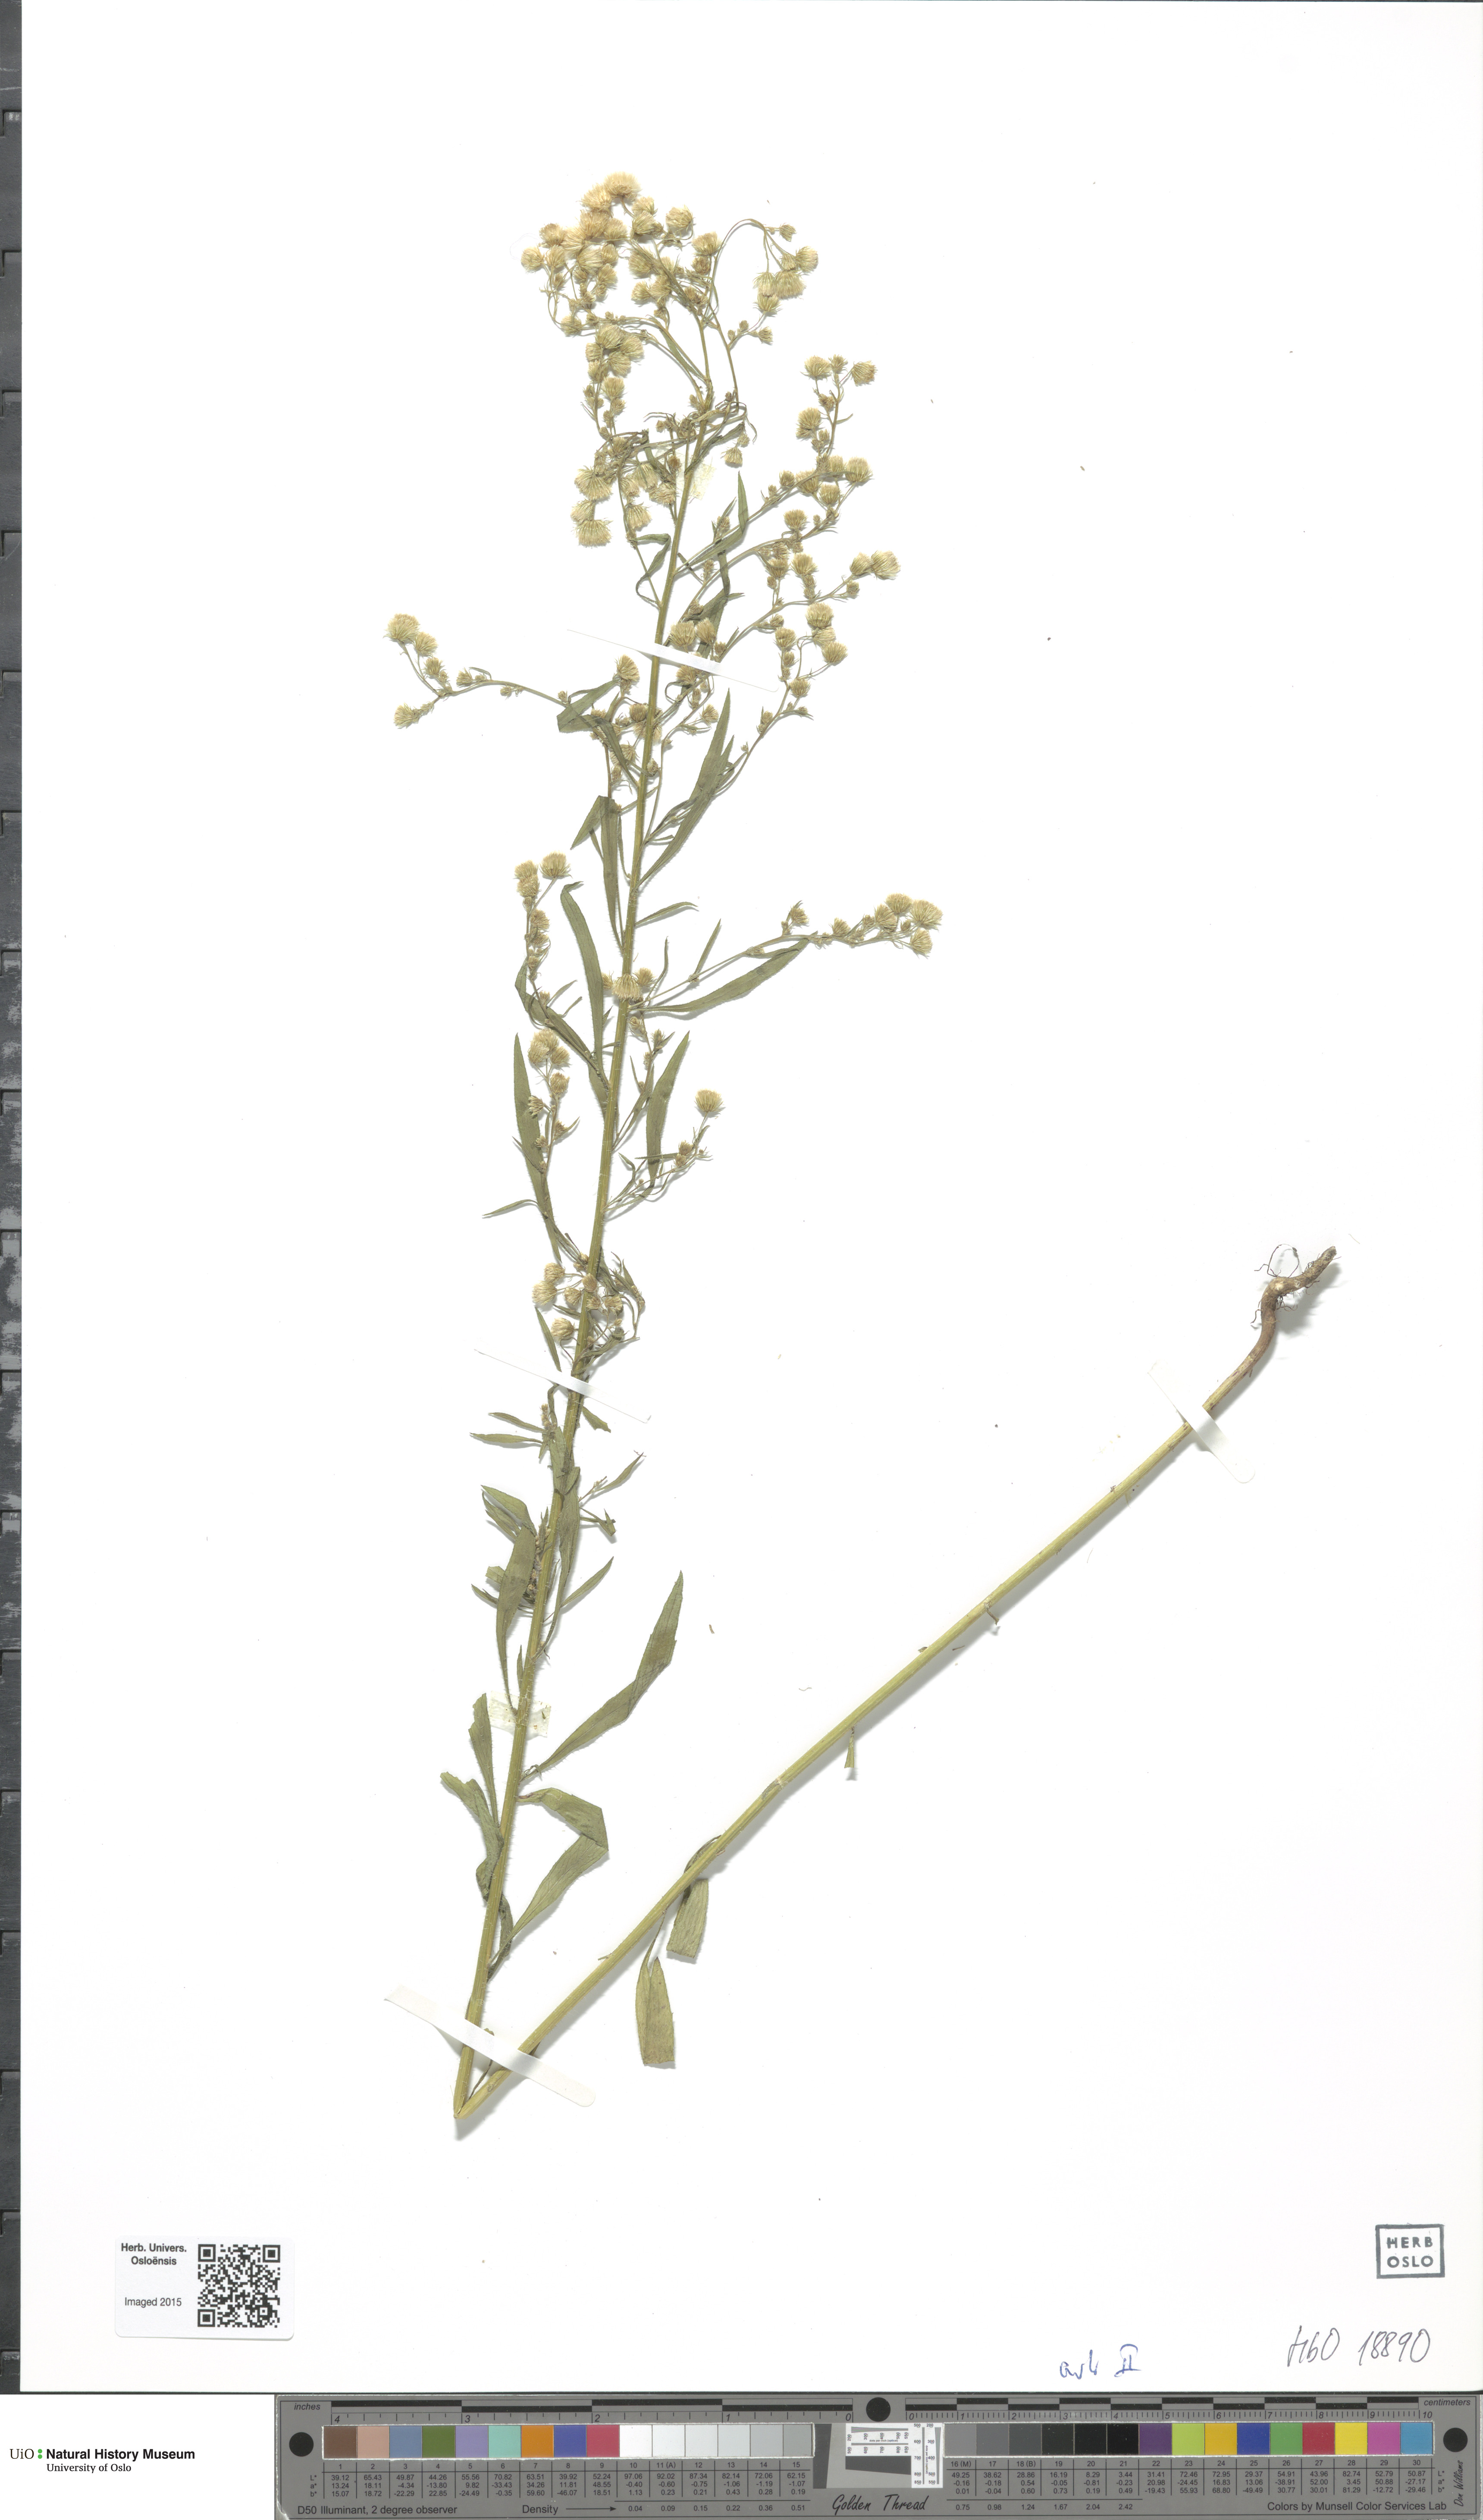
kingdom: Plantae
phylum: Tracheophyta
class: Magnoliopsida
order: Asterales
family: Asteraceae
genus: Erigeron
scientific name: Erigeron canadensis
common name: Canadian fleabane
